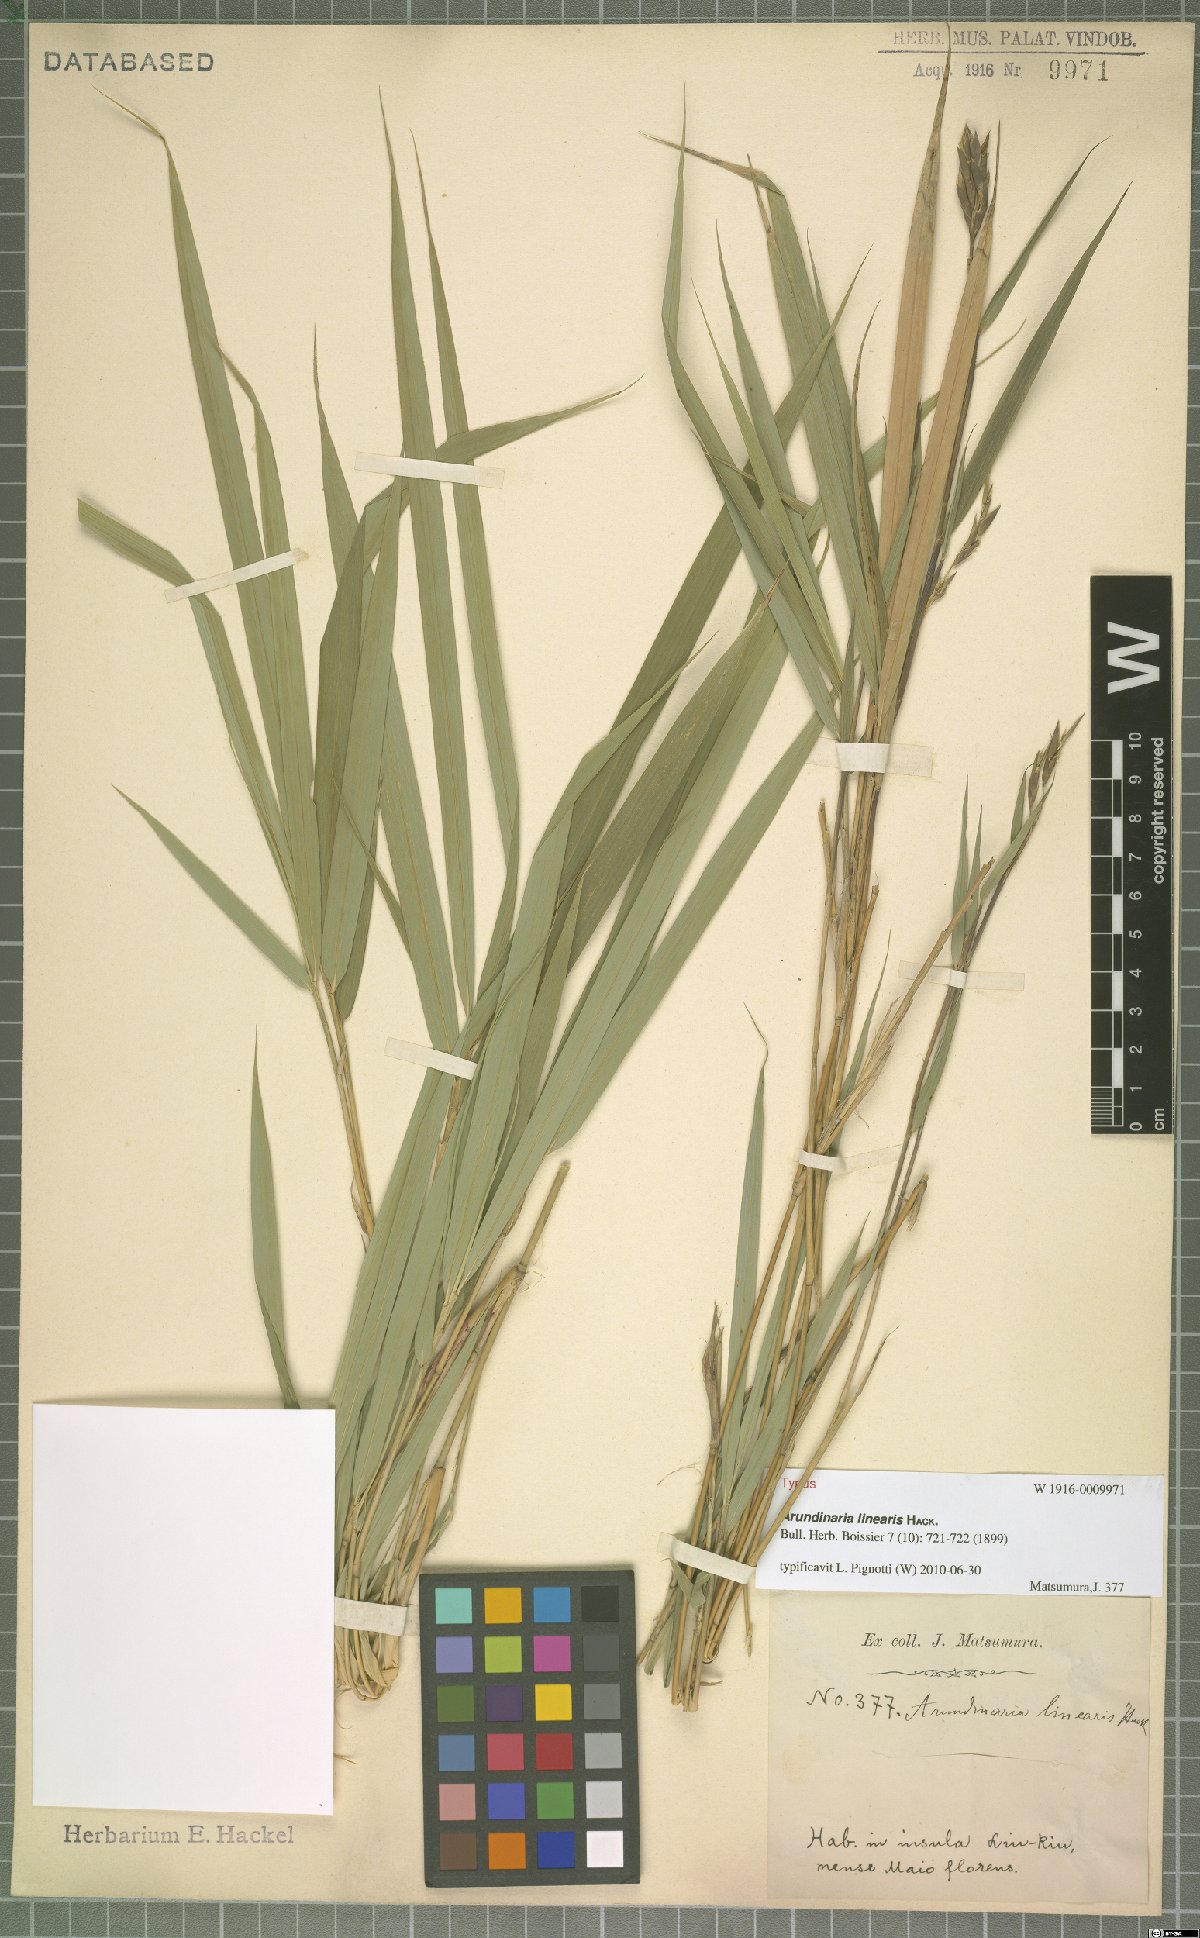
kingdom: Plantae
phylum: Tracheophyta
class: Liliopsida
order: Poales
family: Poaceae
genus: Pleioblastus
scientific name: Pleioblastus linearis
